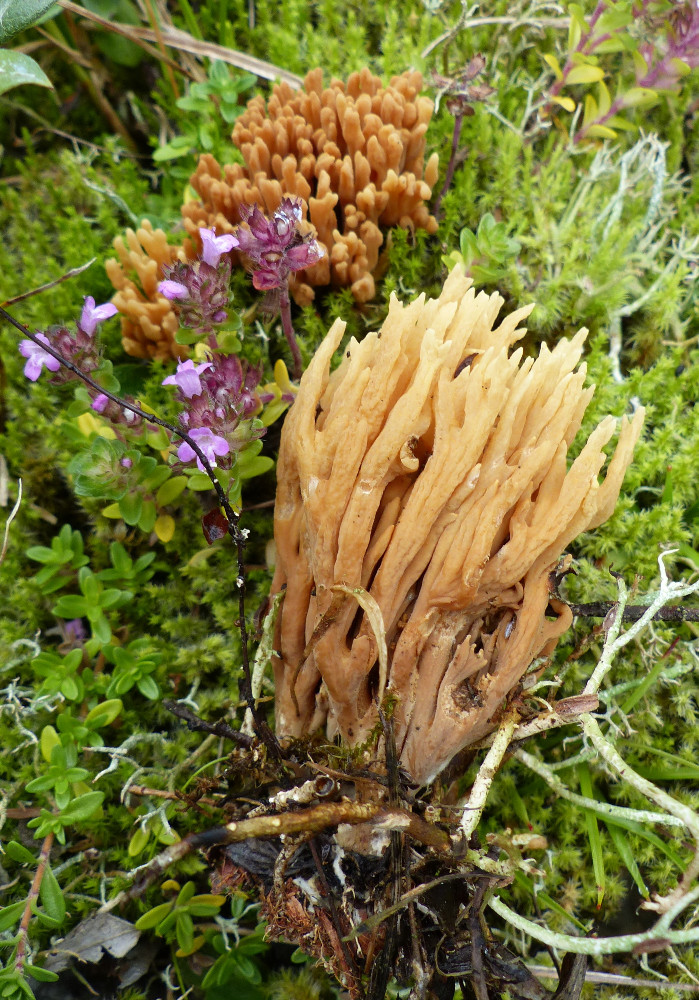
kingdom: Fungi
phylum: Basidiomycota
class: Agaricomycetes
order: Gomphales
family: Gomphaceae
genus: Phaeoclavulina
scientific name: Phaeoclavulina
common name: koralsvamp
